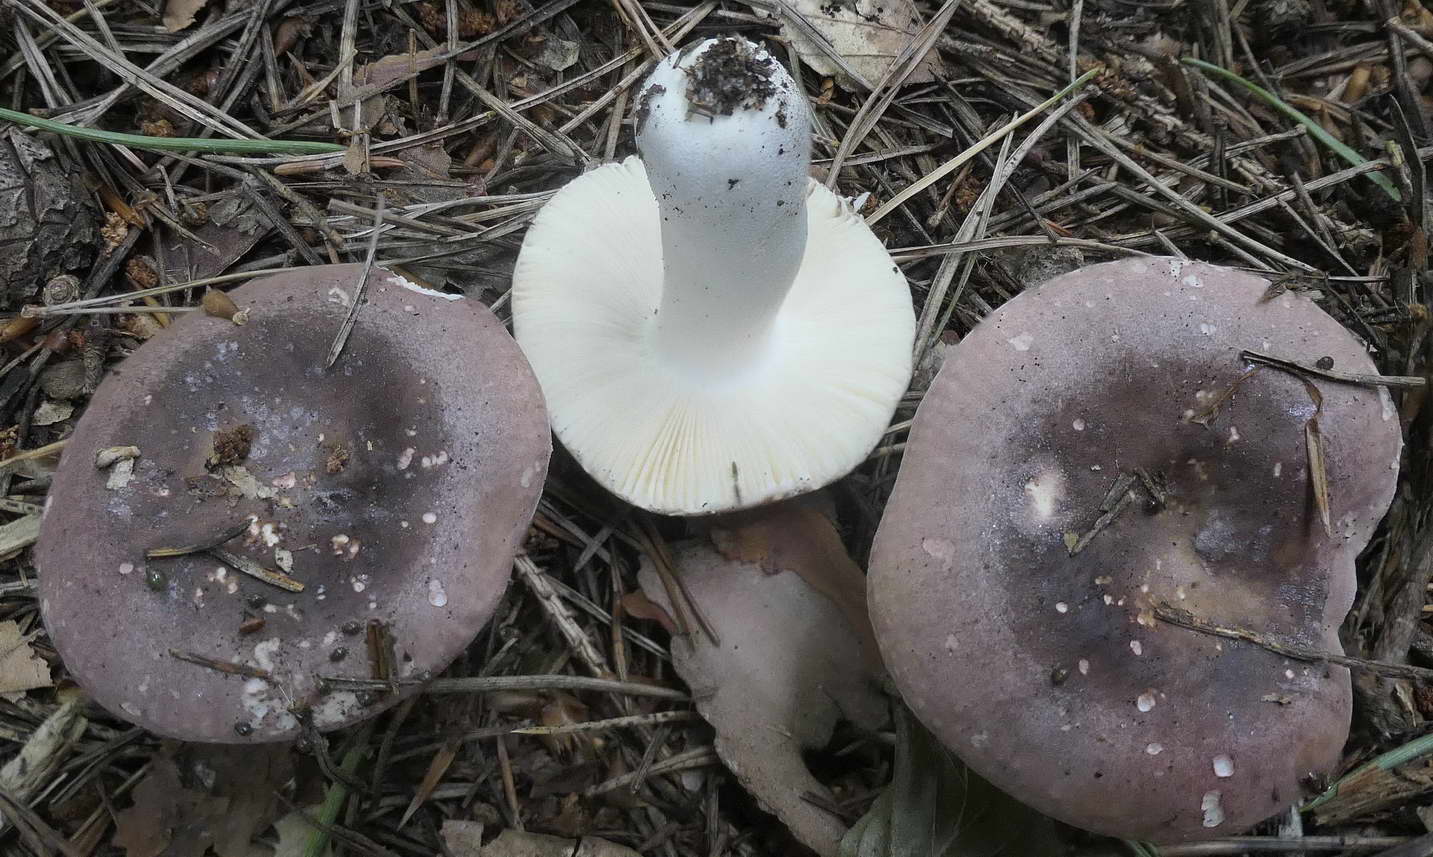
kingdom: Fungi
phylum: Basidiomycota
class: Agaricomycetes
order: Russulales
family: Russulaceae
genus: Russula
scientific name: Russula
